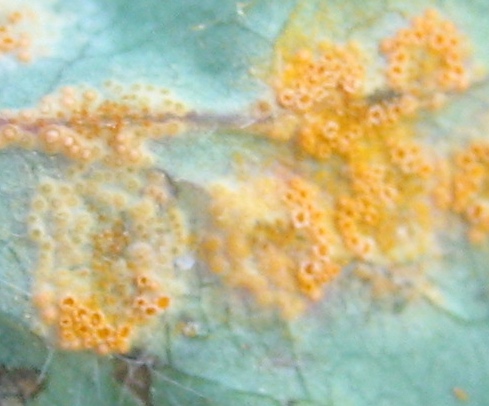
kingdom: Fungi
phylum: Basidiomycota
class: Pucciniomycetes
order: Pucciniales
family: Pucciniaceae
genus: Puccinia
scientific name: Puccinia festucae
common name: gedeblad-tvecellerust
